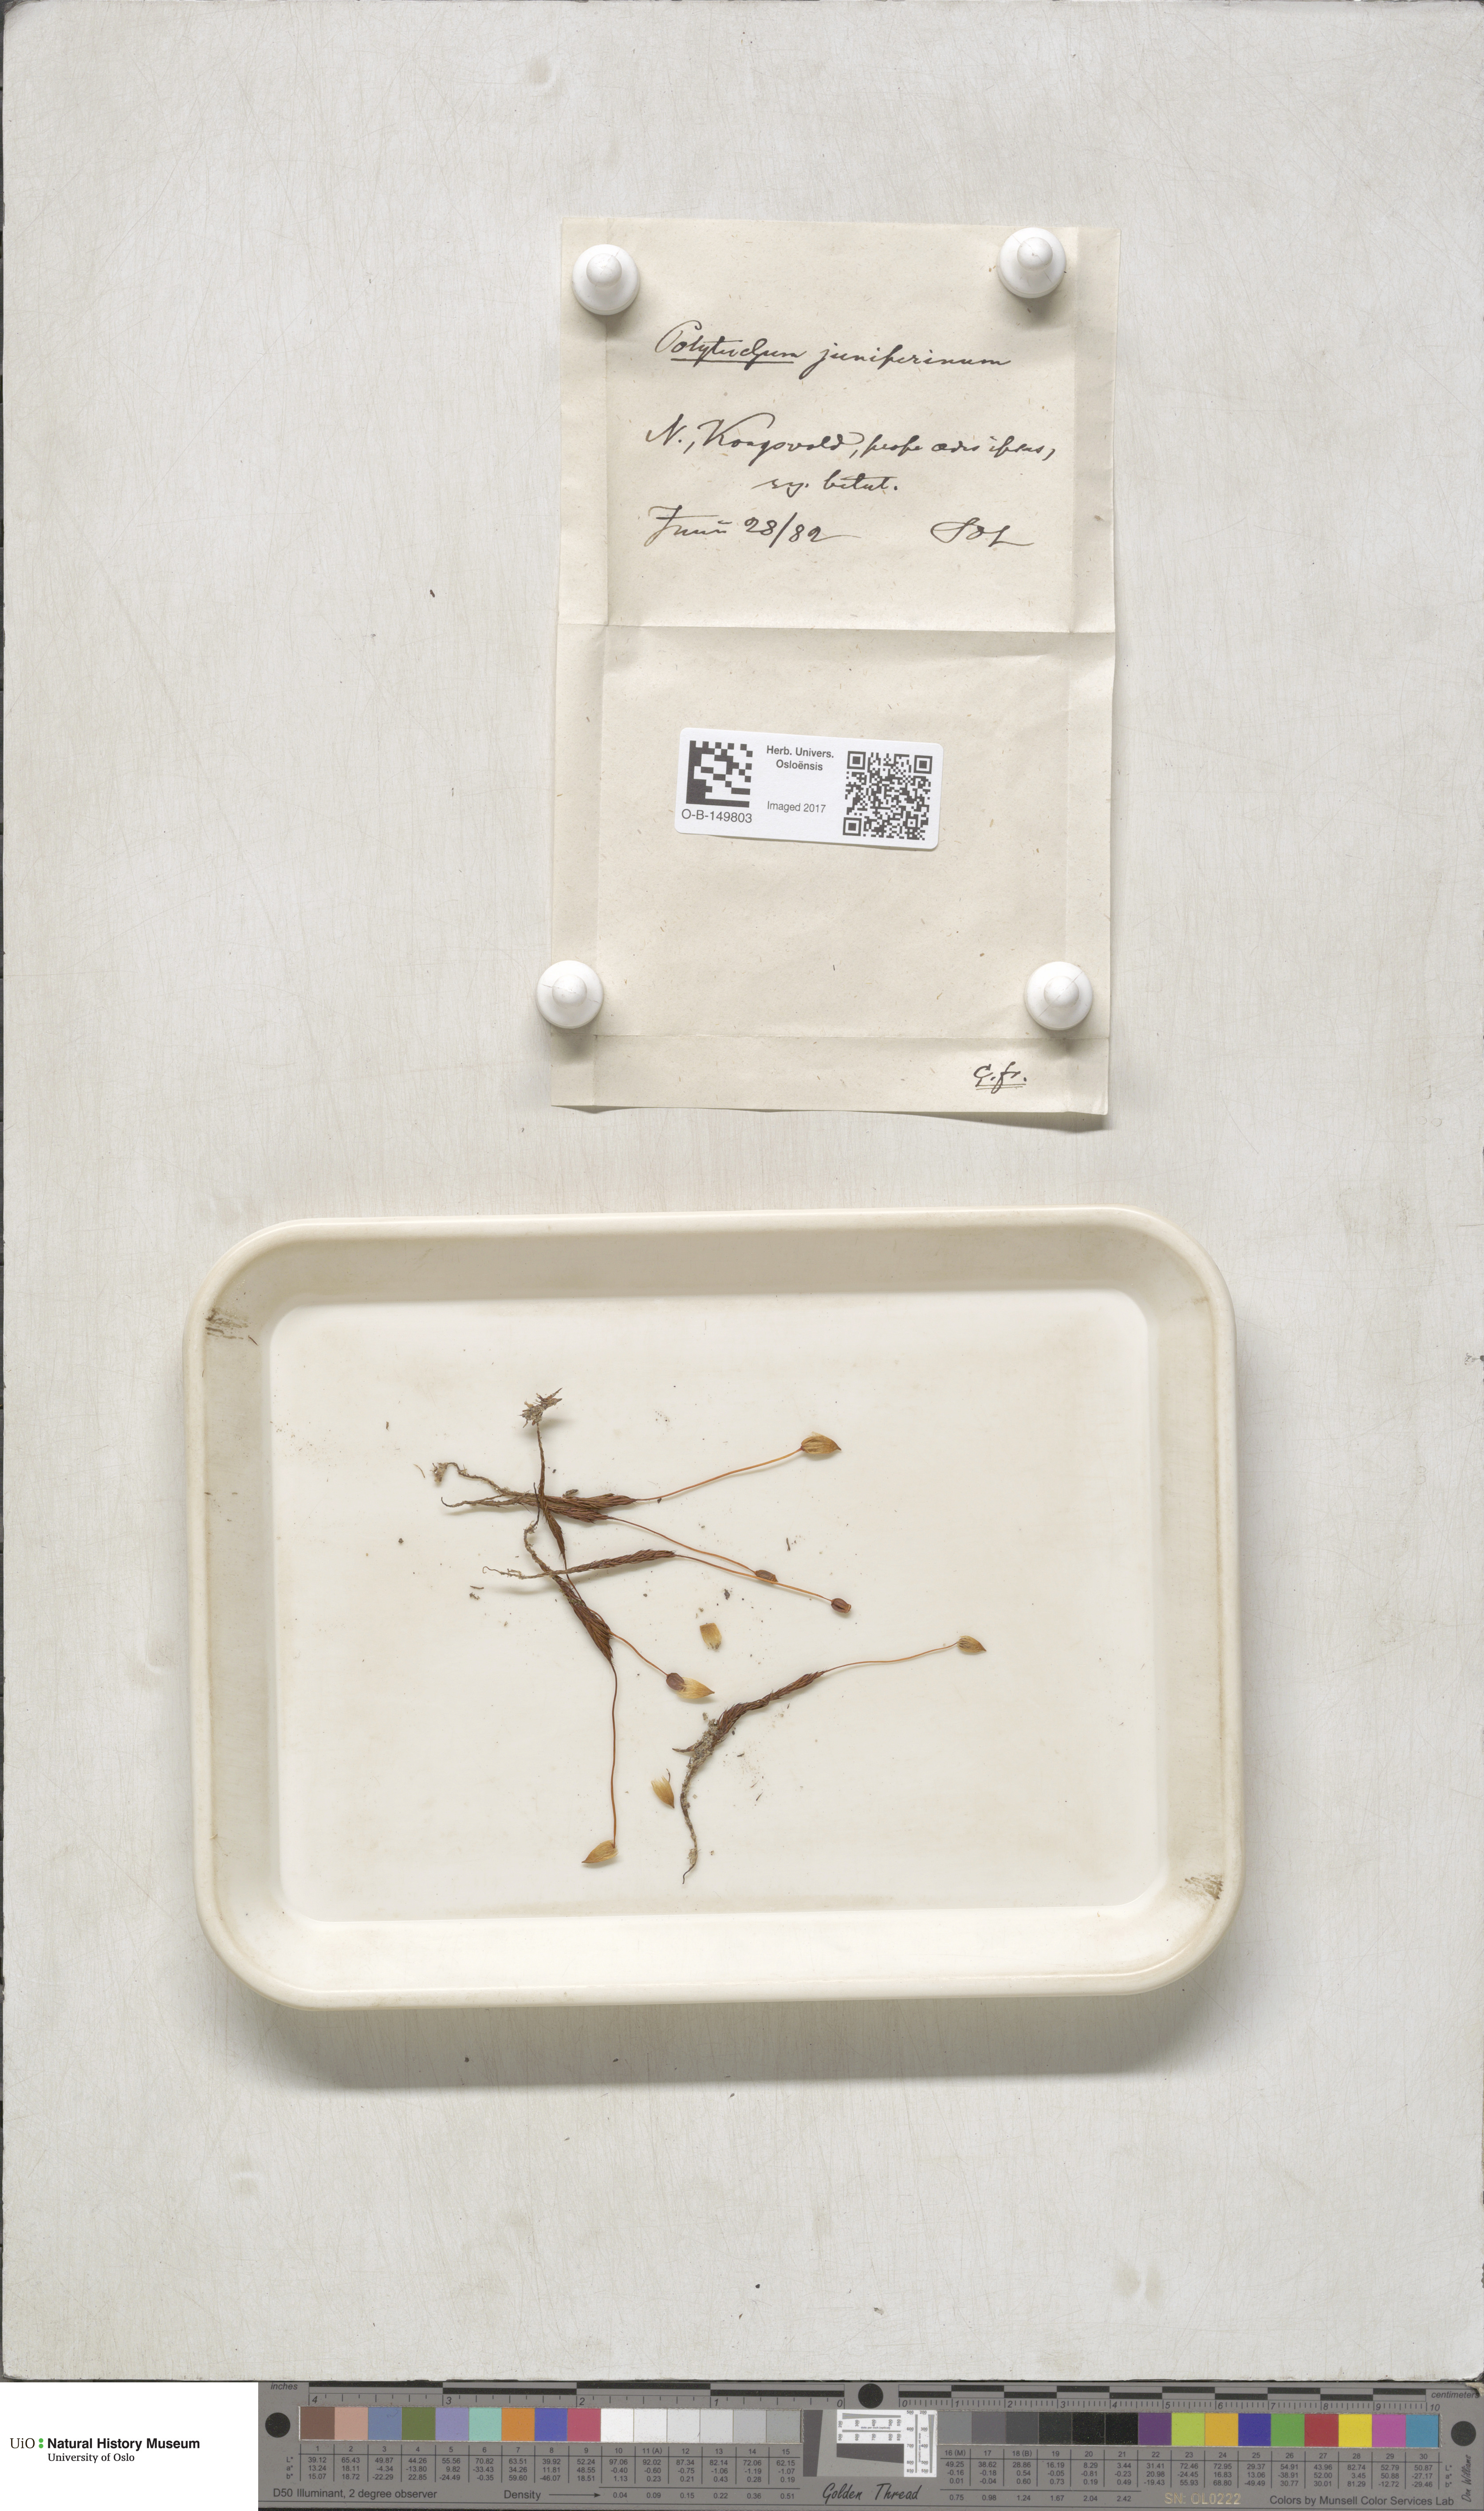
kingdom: Plantae
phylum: Bryophyta
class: Polytrichopsida
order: Polytrichales
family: Polytrichaceae
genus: Polytrichum
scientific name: Polytrichum juniperinum
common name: Juniper haircap moss
